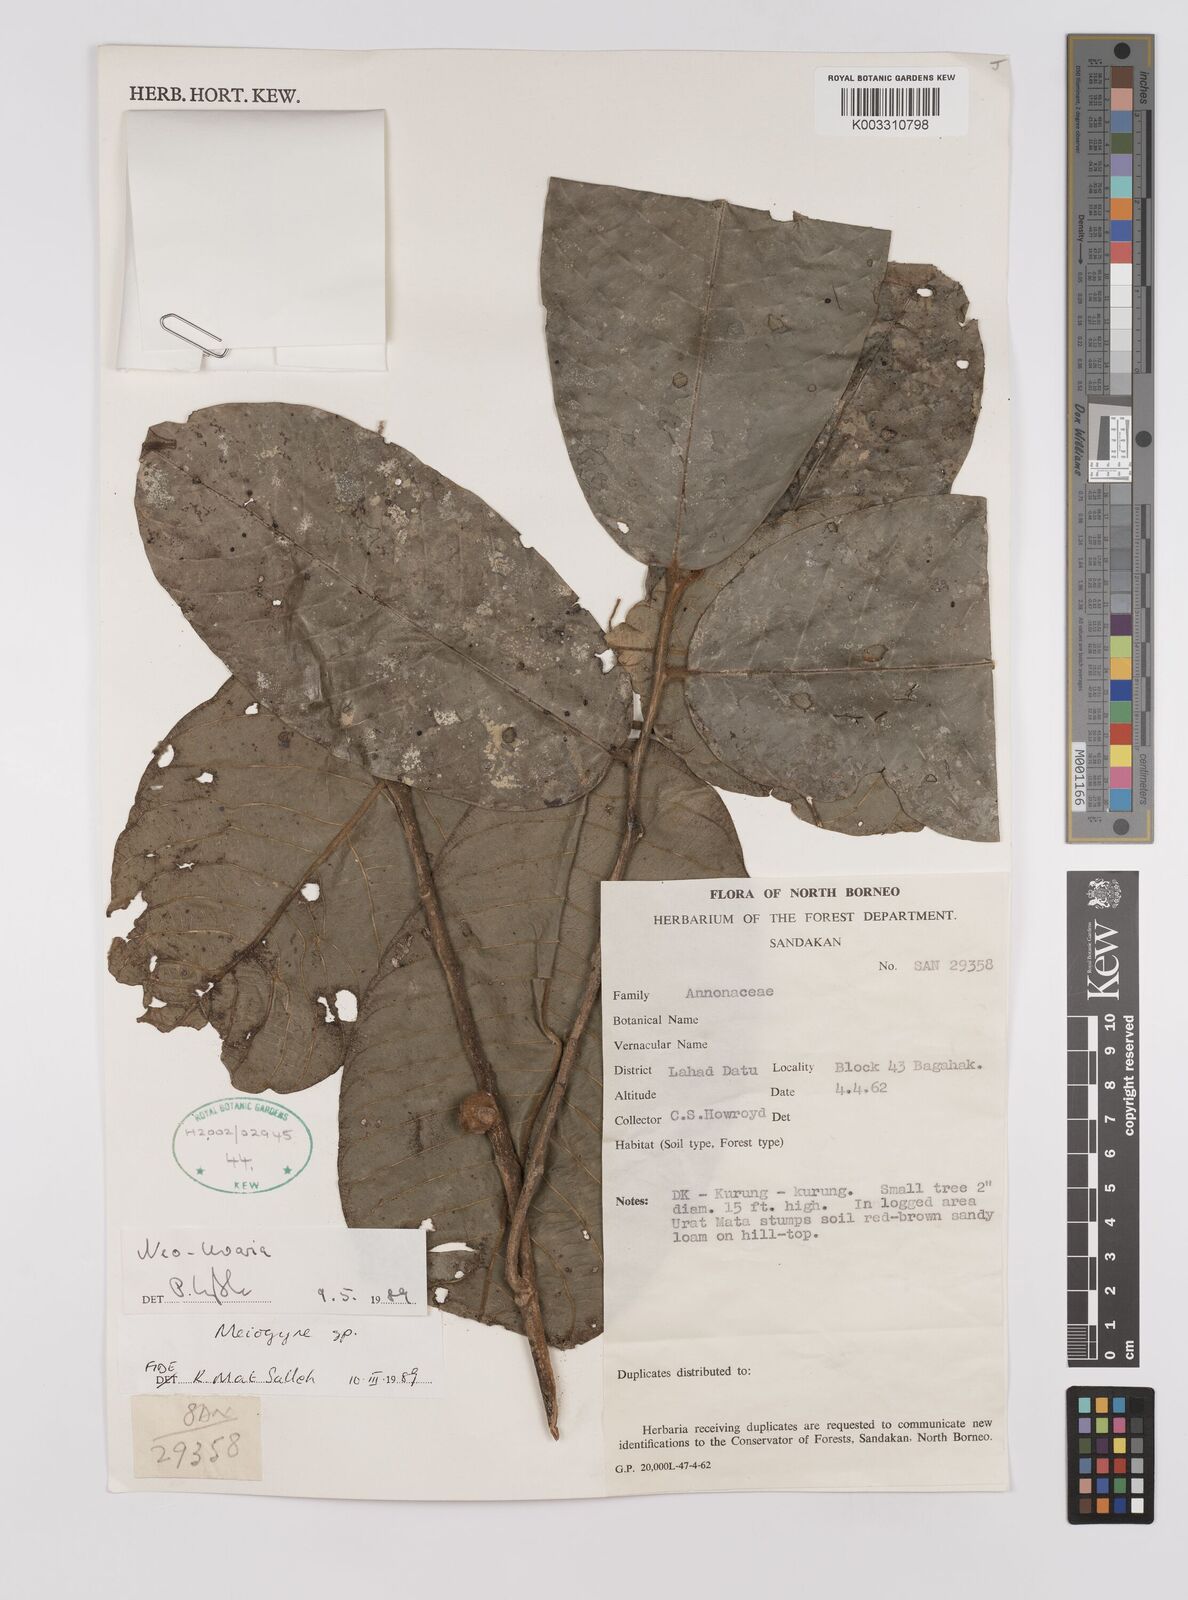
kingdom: Plantae
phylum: Tracheophyta
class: Magnoliopsida
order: Magnoliales
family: Annonaceae
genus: Neo-uvaria
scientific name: Neo-uvaria
